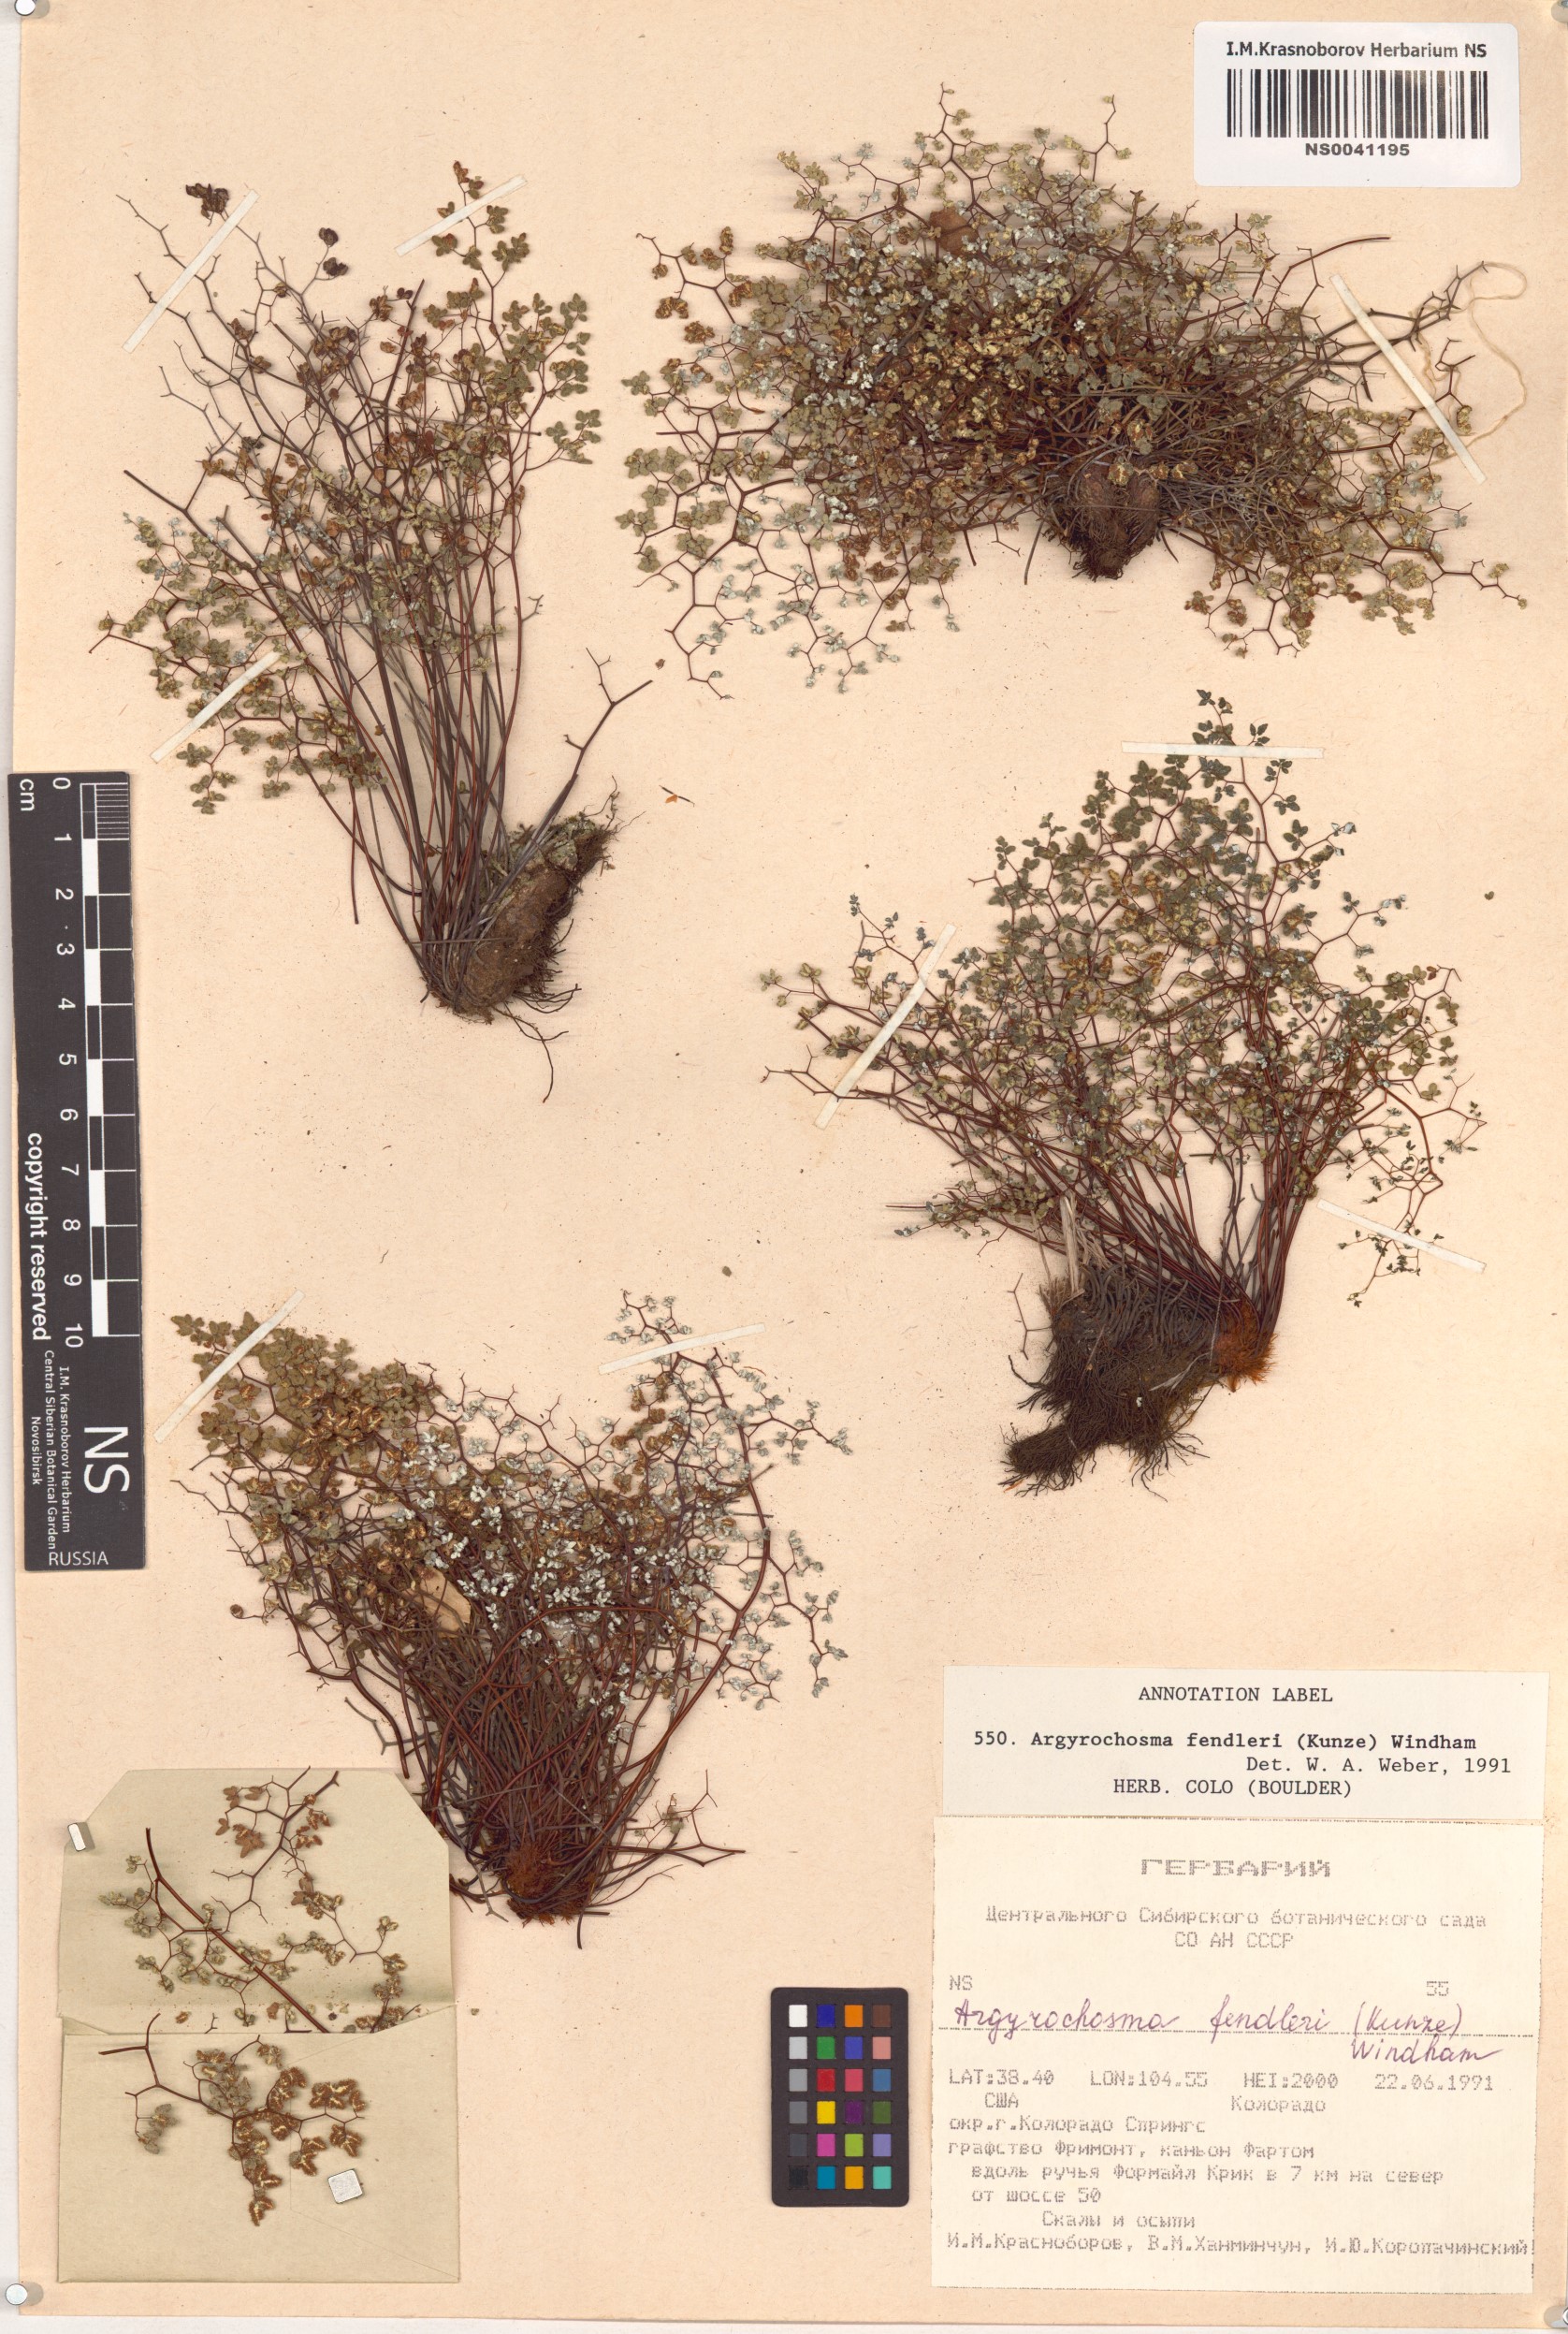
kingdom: Plantae
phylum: Tracheophyta
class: Polypodiopsida
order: Polypodiales
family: Pteridaceae
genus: Argyrochosma
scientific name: Argyrochosma fendleri
